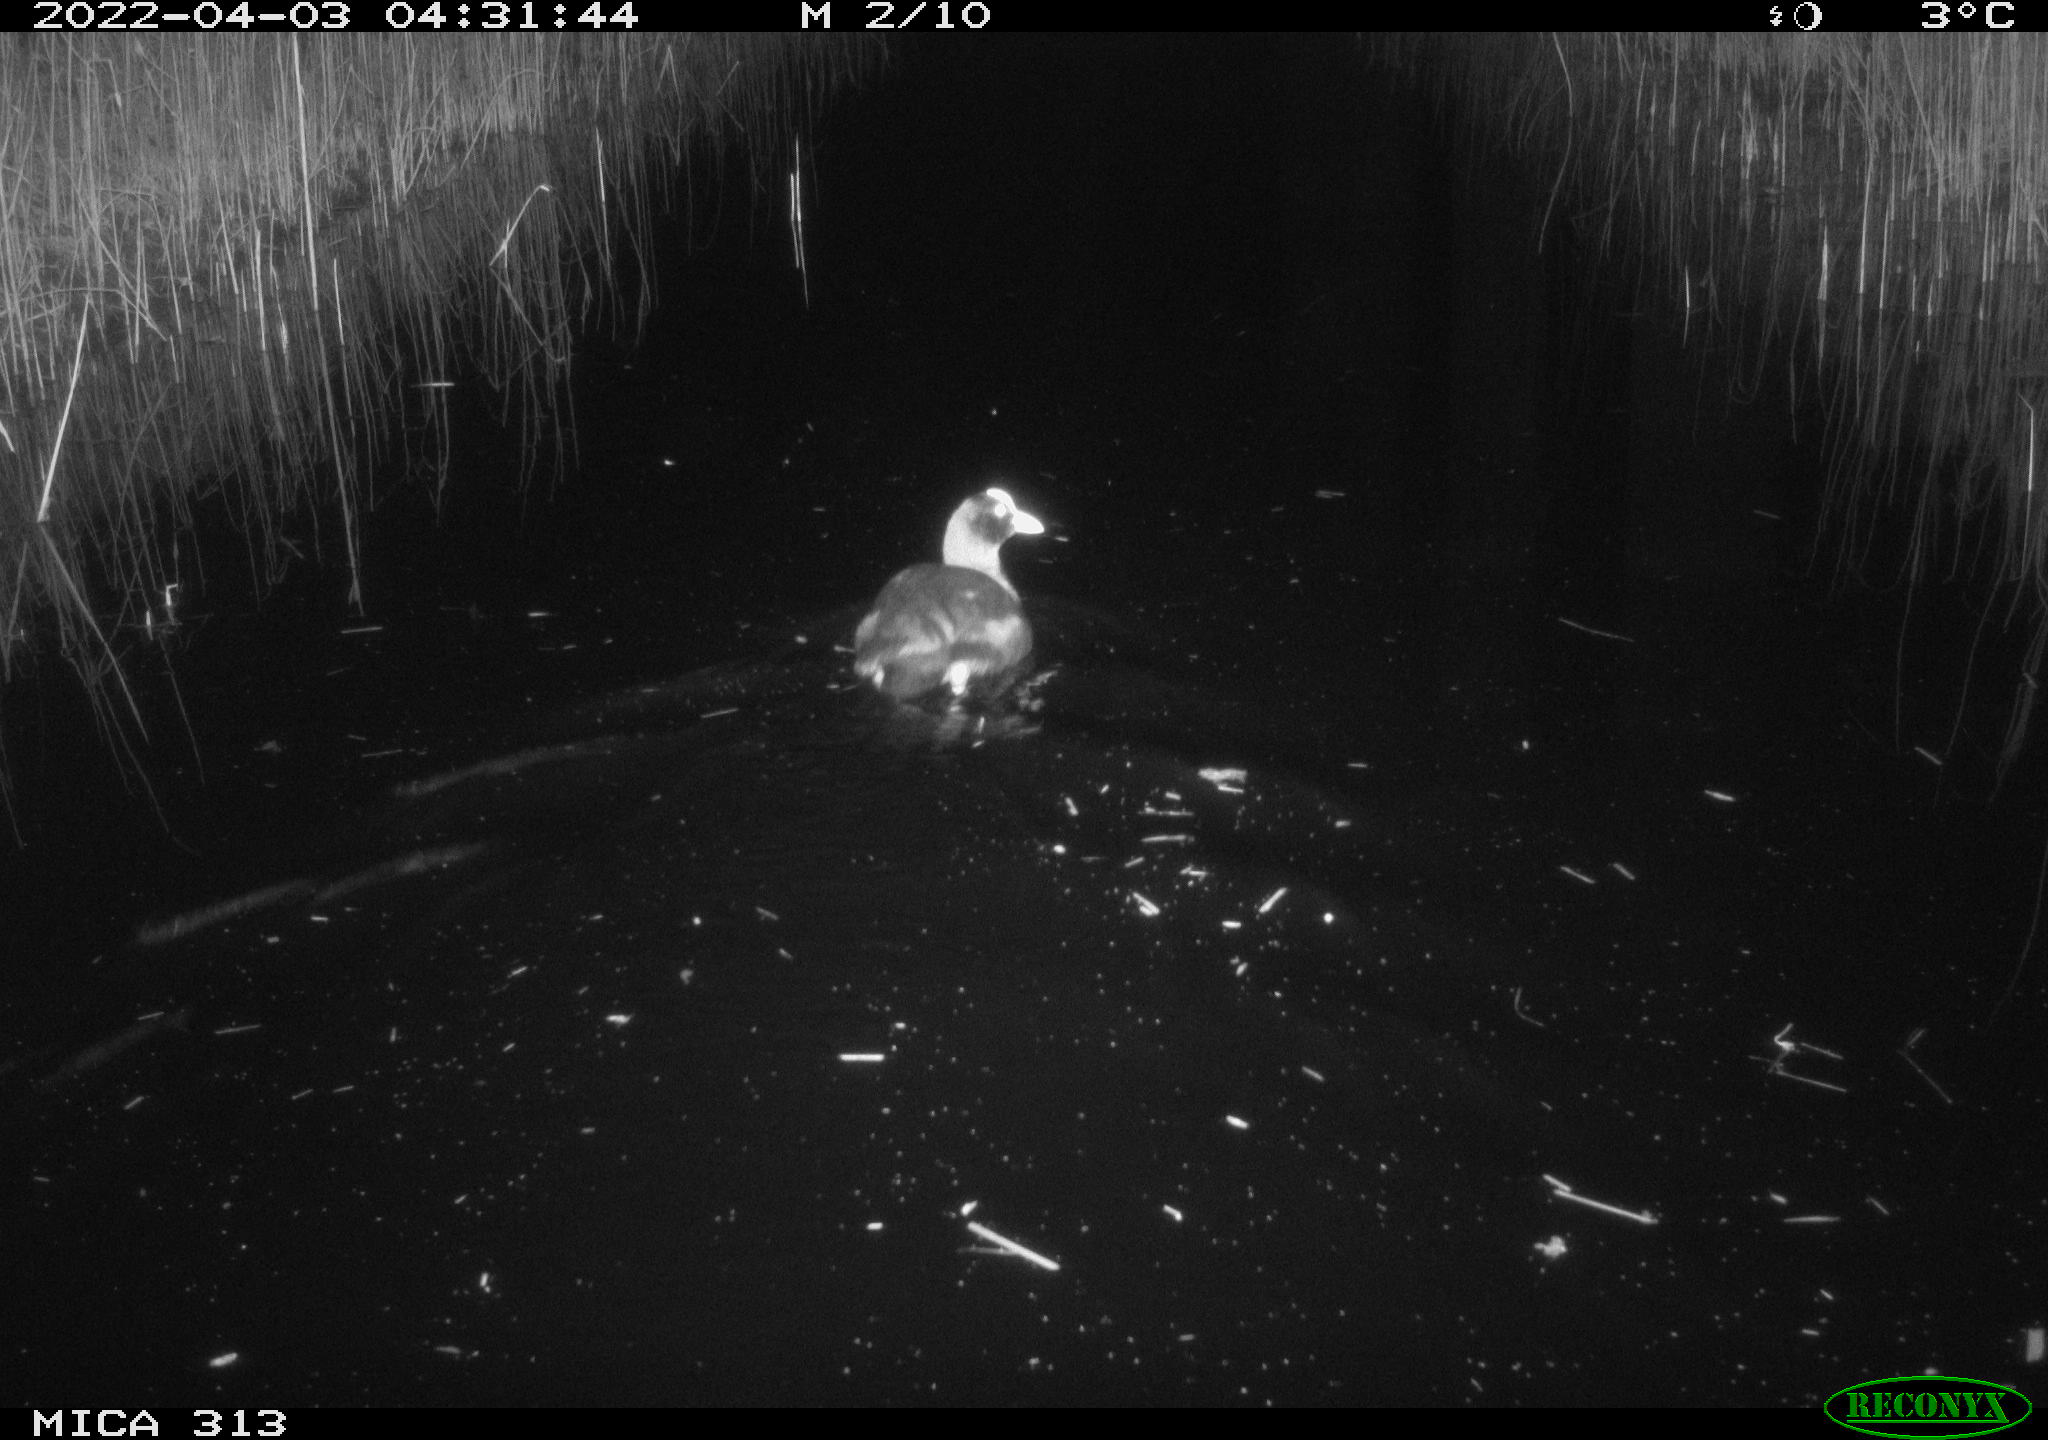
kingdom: Animalia
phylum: Chordata
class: Aves
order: Gruiformes
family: Rallidae
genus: Fulica
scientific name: Fulica atra
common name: Eurasian coot
